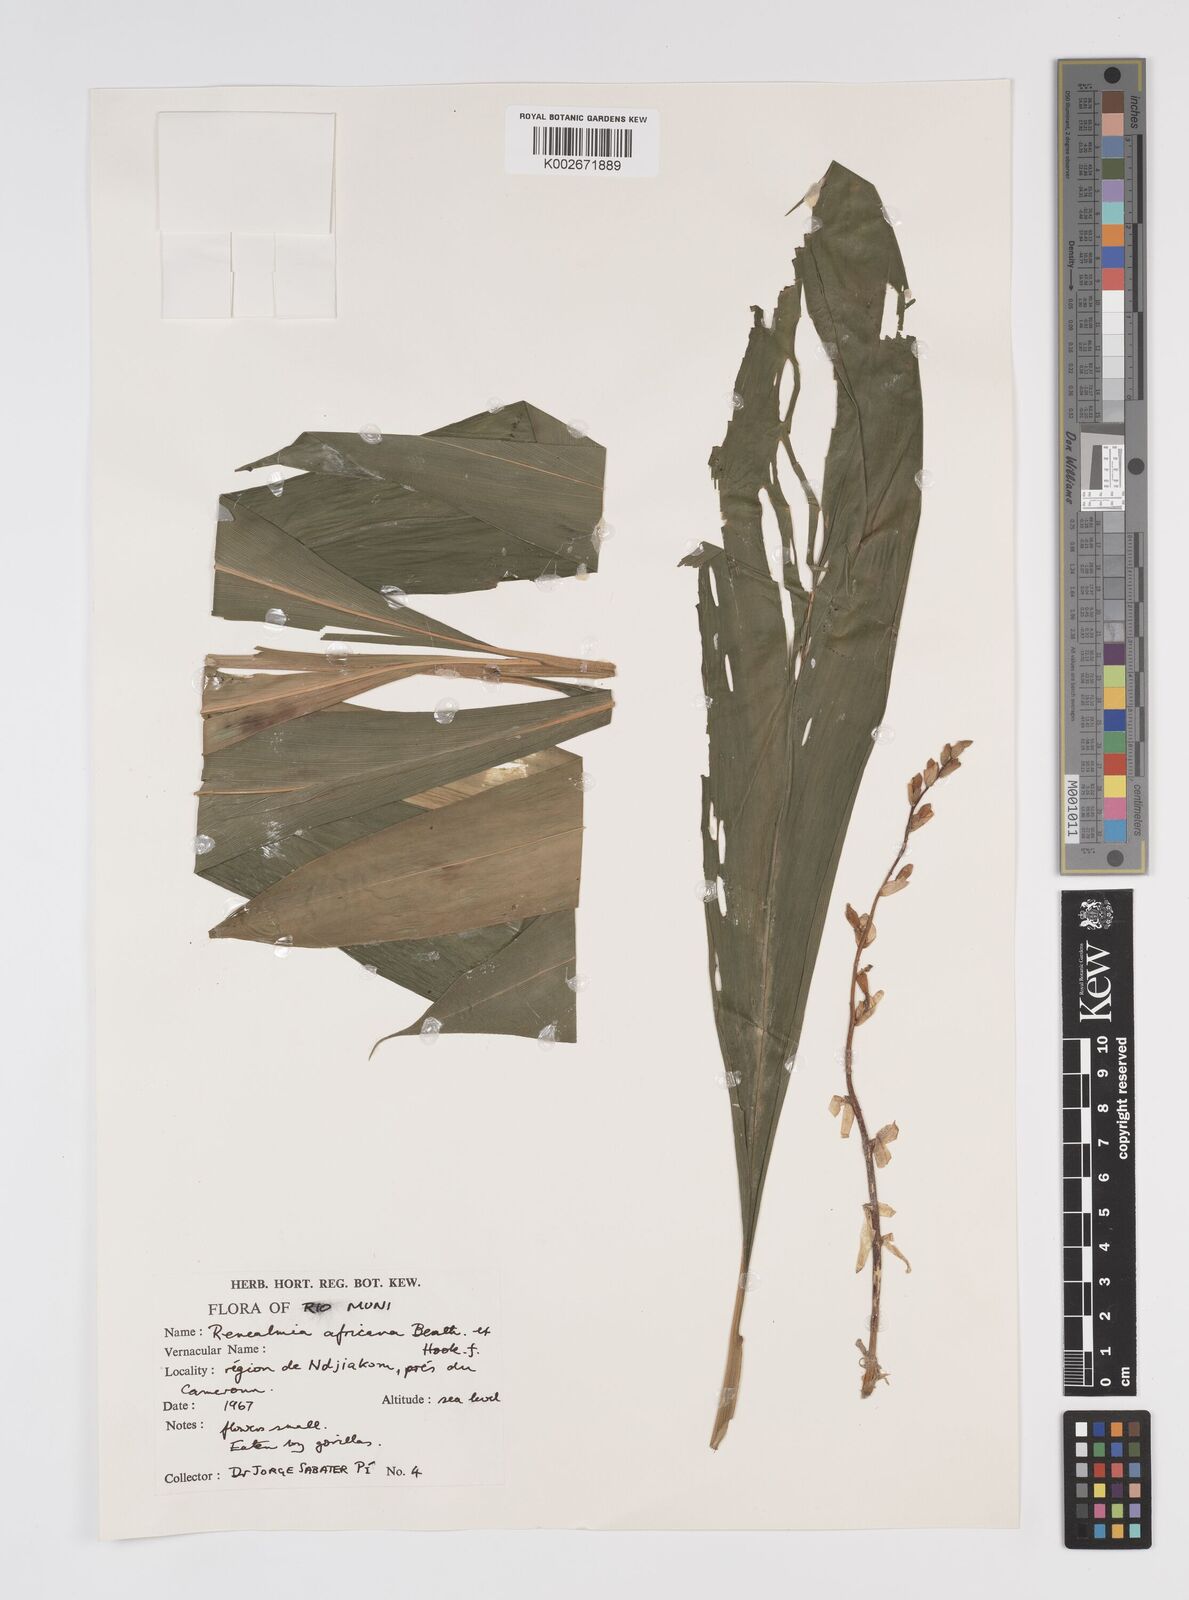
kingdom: Plantae
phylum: Tracheophyta
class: Liliopsida
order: Zingiberales
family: Zingiberaceae
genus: Renealmia
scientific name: Renealmia africana
